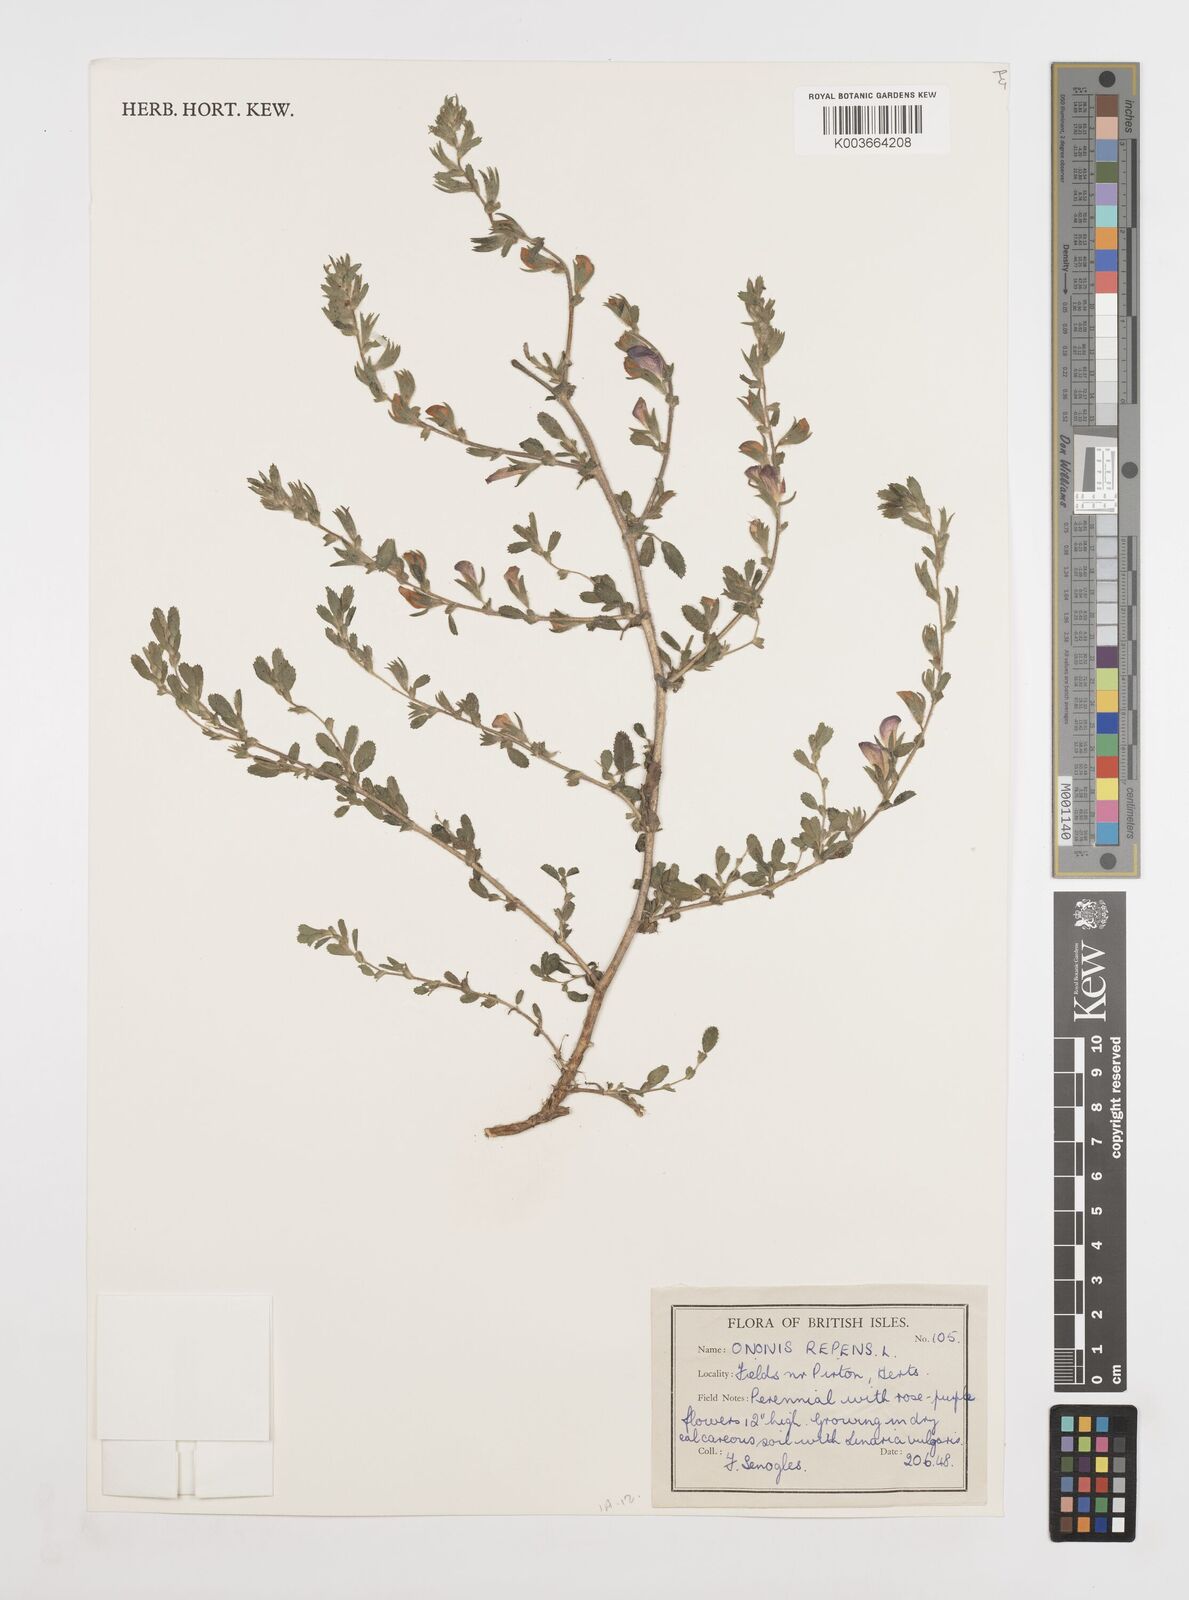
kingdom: Plantae
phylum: Tracheophyta
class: Magnoliopsida
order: Fabales
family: Fabaceae
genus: Ononis
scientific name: Ononis spinosa
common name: Spiny restharrow
